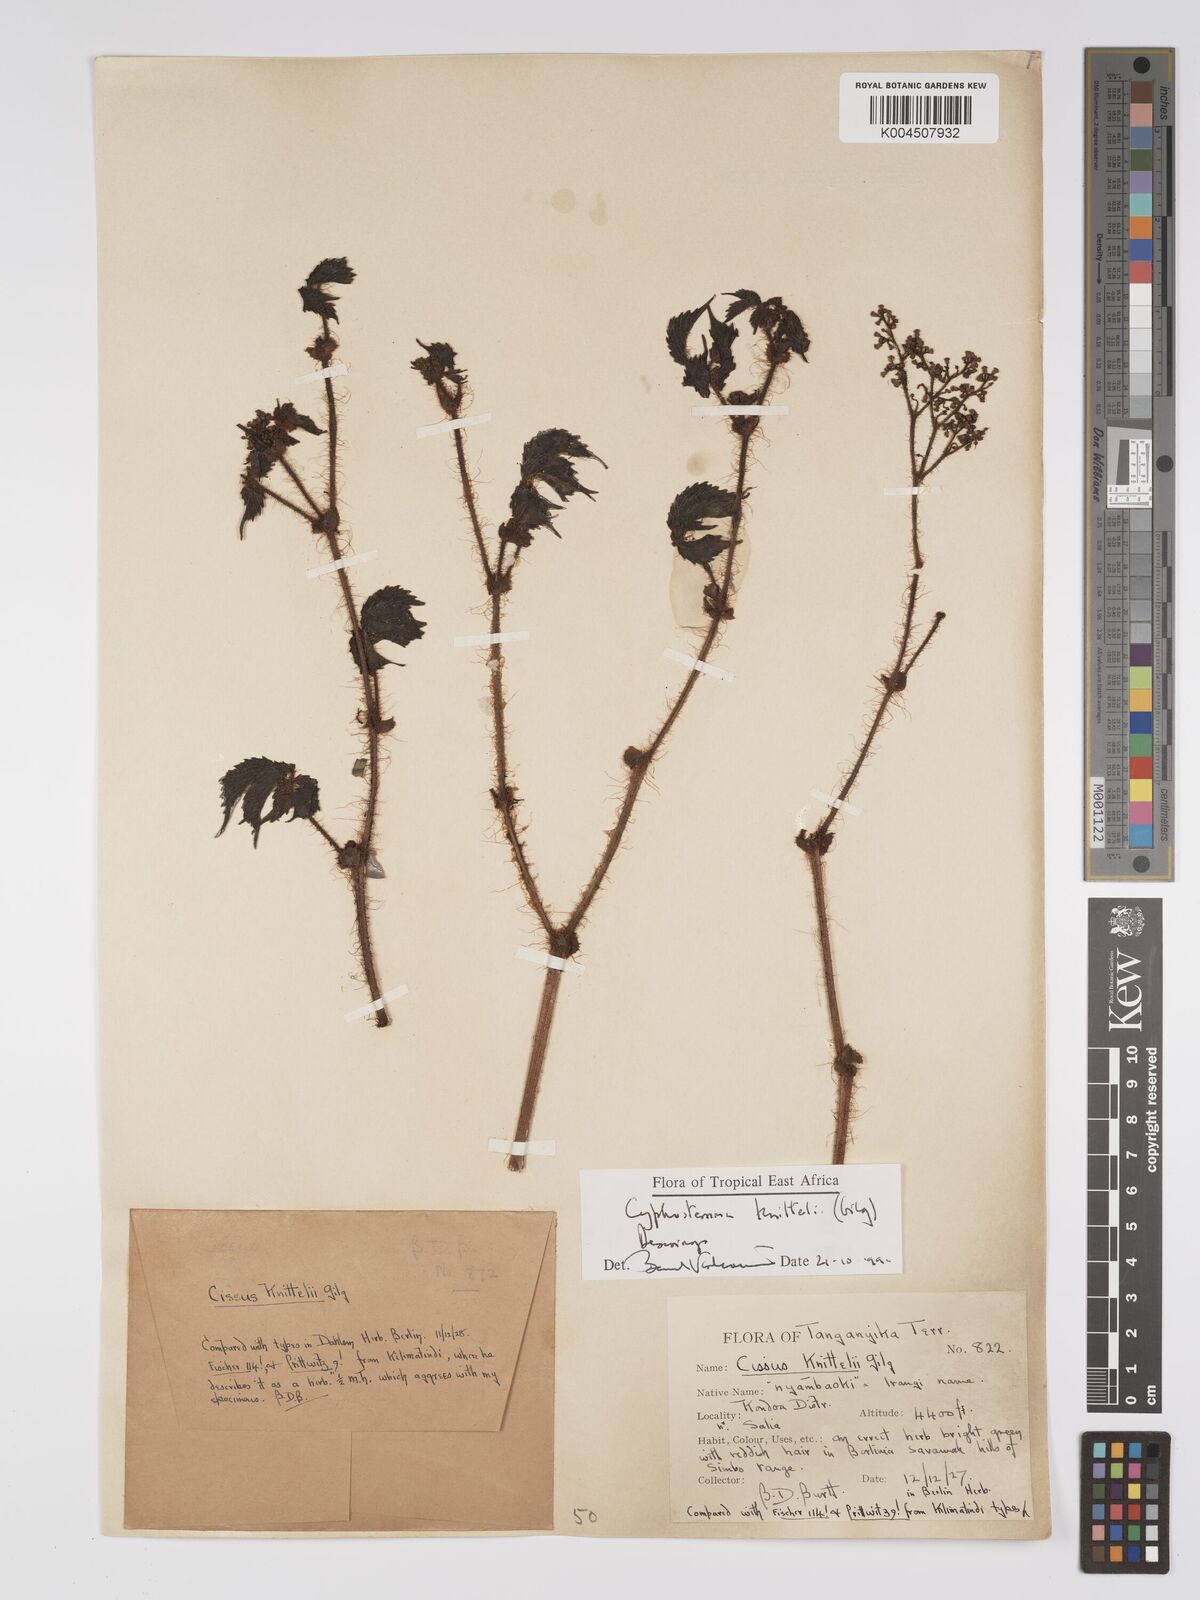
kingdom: Plantae
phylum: Tracheophyta
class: Magnoliopsida
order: Vitales
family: Vitaceae
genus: Cyphostemma
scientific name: Cyphostemma knittelii
